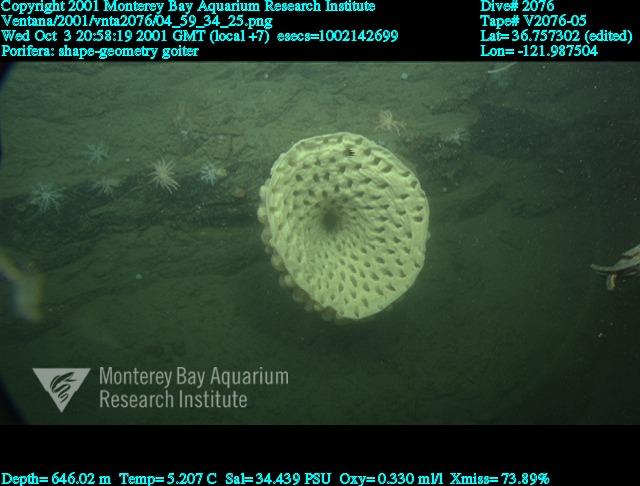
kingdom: Animalia
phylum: Porifera
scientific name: Porifera
